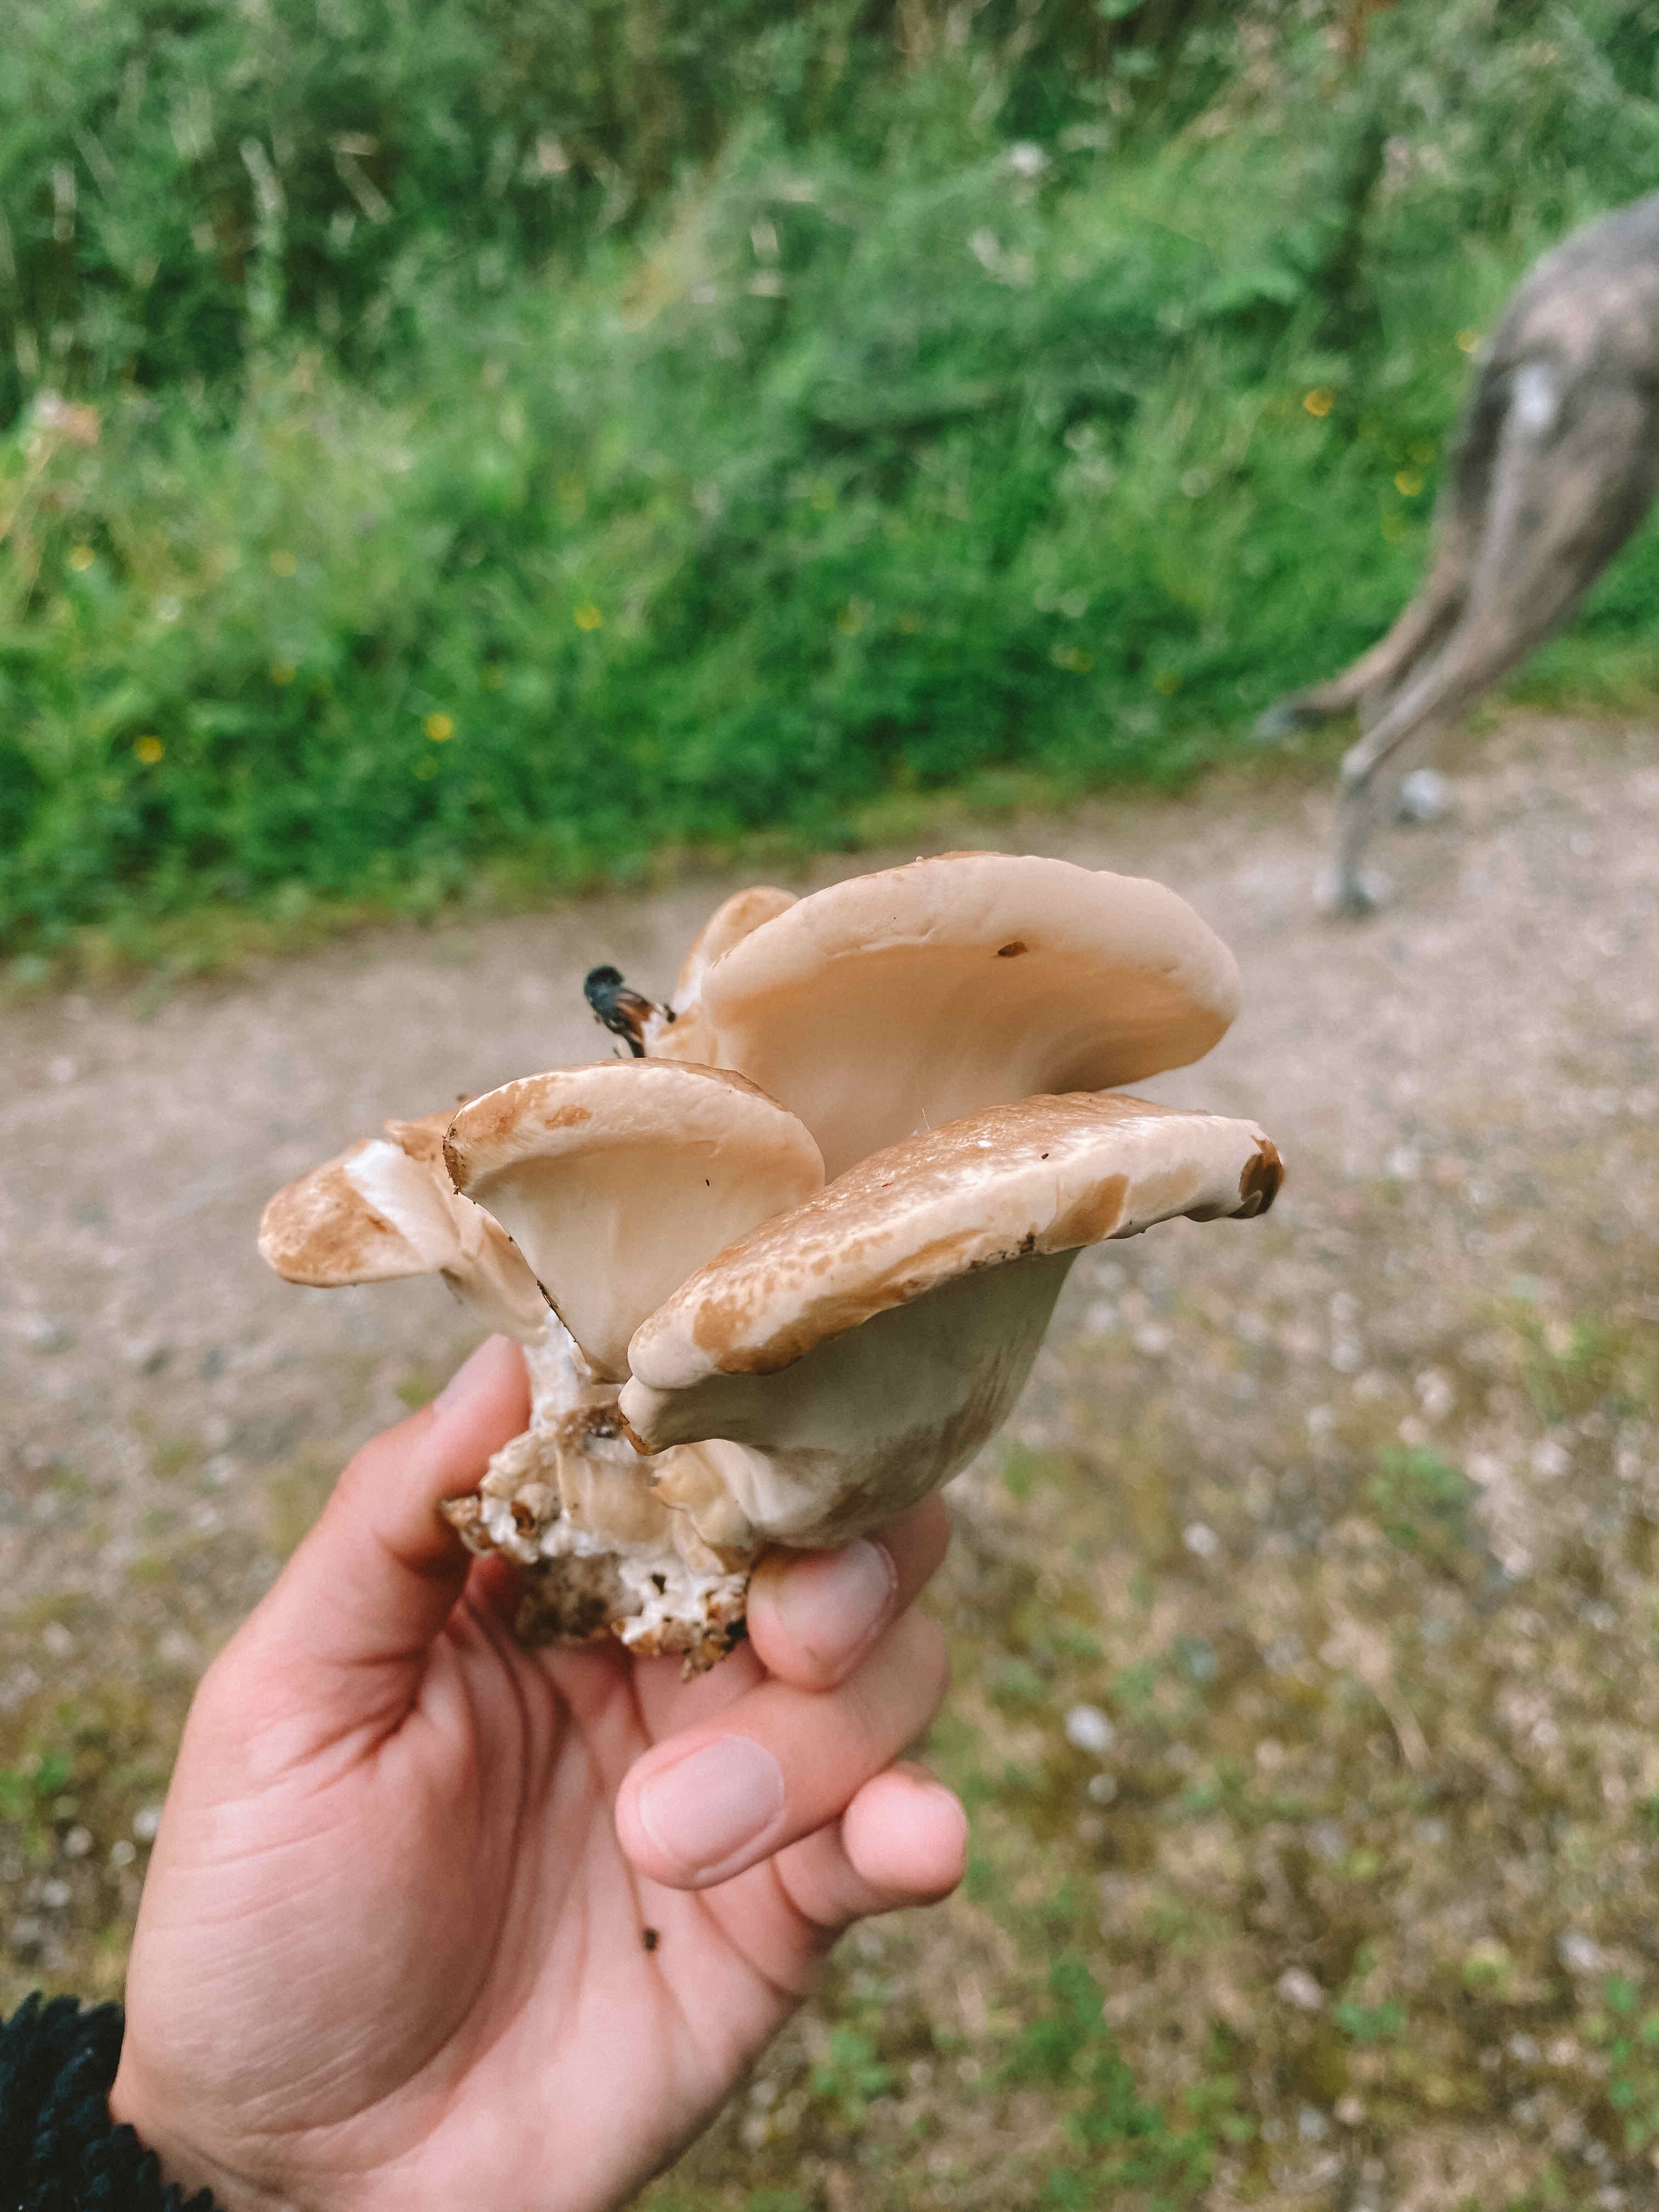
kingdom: Fungi
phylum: Basidiomycota
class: Agaricomycetes
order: Polyporales
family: Meripilaceae
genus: Meripilus
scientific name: Meripilus giganteus
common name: kæmpeporesvamp
